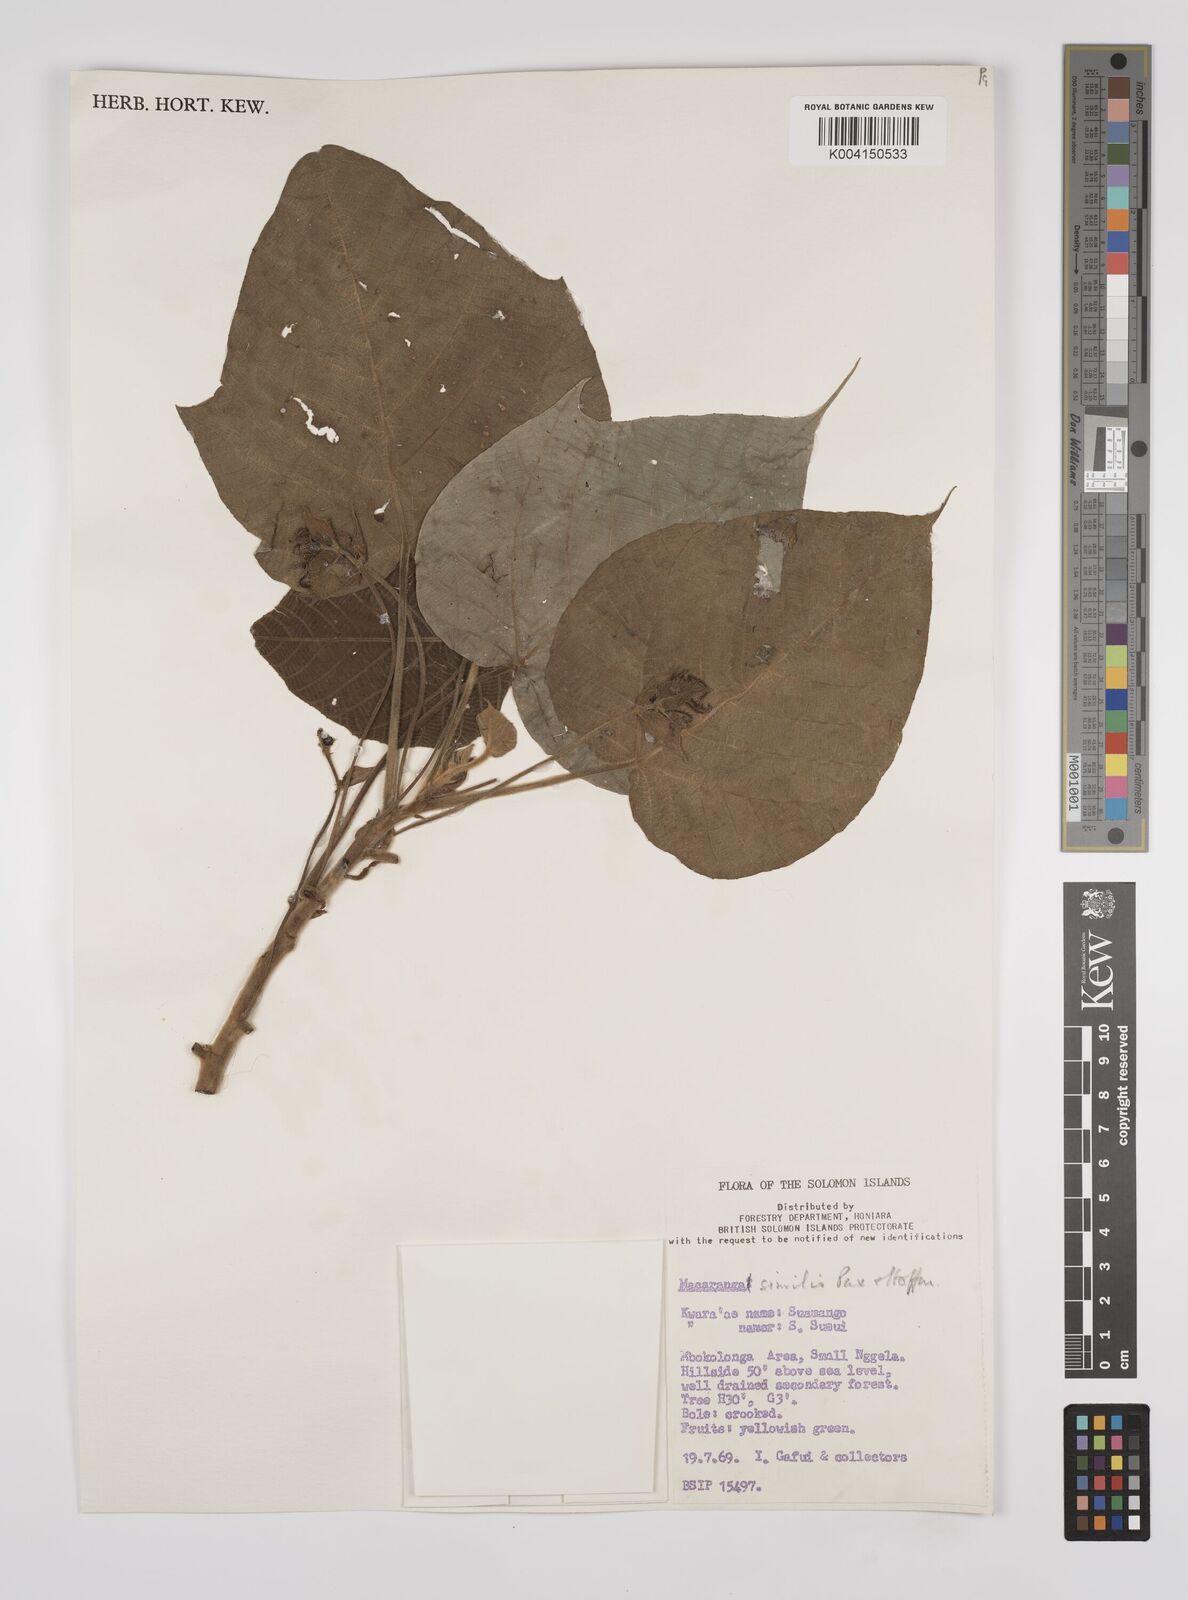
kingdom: Plantae
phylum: Tracheophyta
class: Magnoliopsida
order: Malpighiales
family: Euphorbiaceae
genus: Macaranga
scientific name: Macaranga similis
